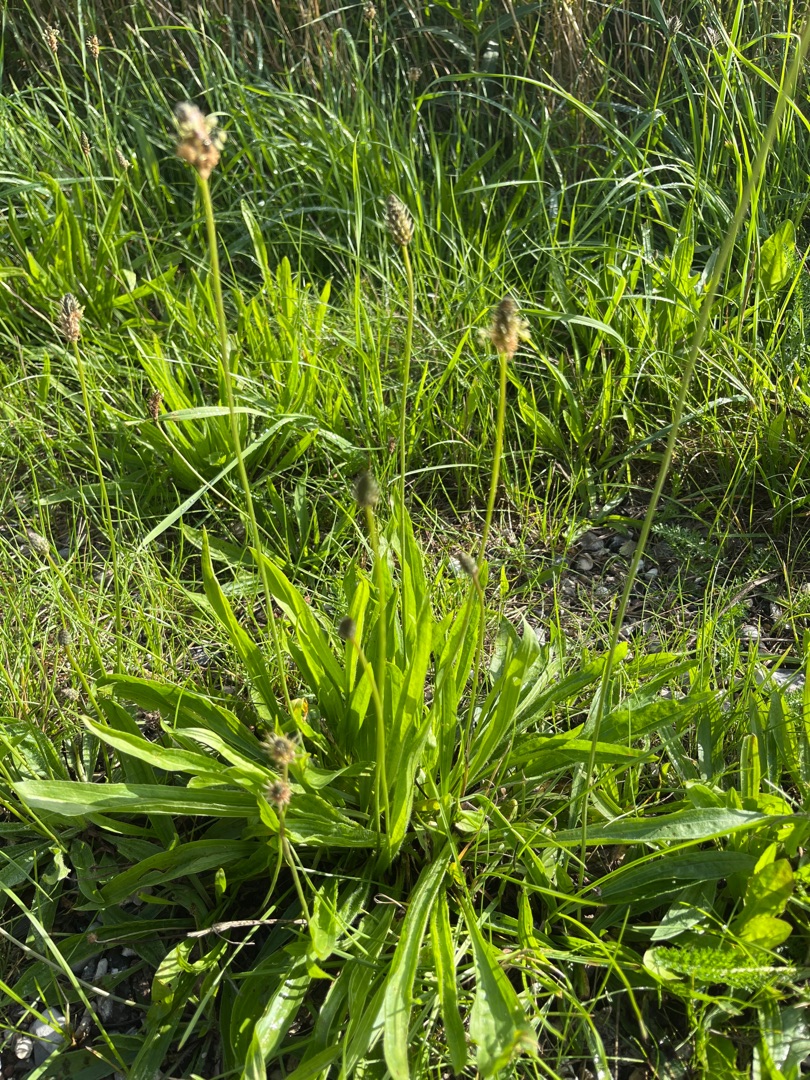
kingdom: Plantae
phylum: Tracheophyta
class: Magnoliopsida
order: Lamiales
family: Plantaginaceae
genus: Plantago
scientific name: Plantago lanceolata
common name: Lancet-vejbred
